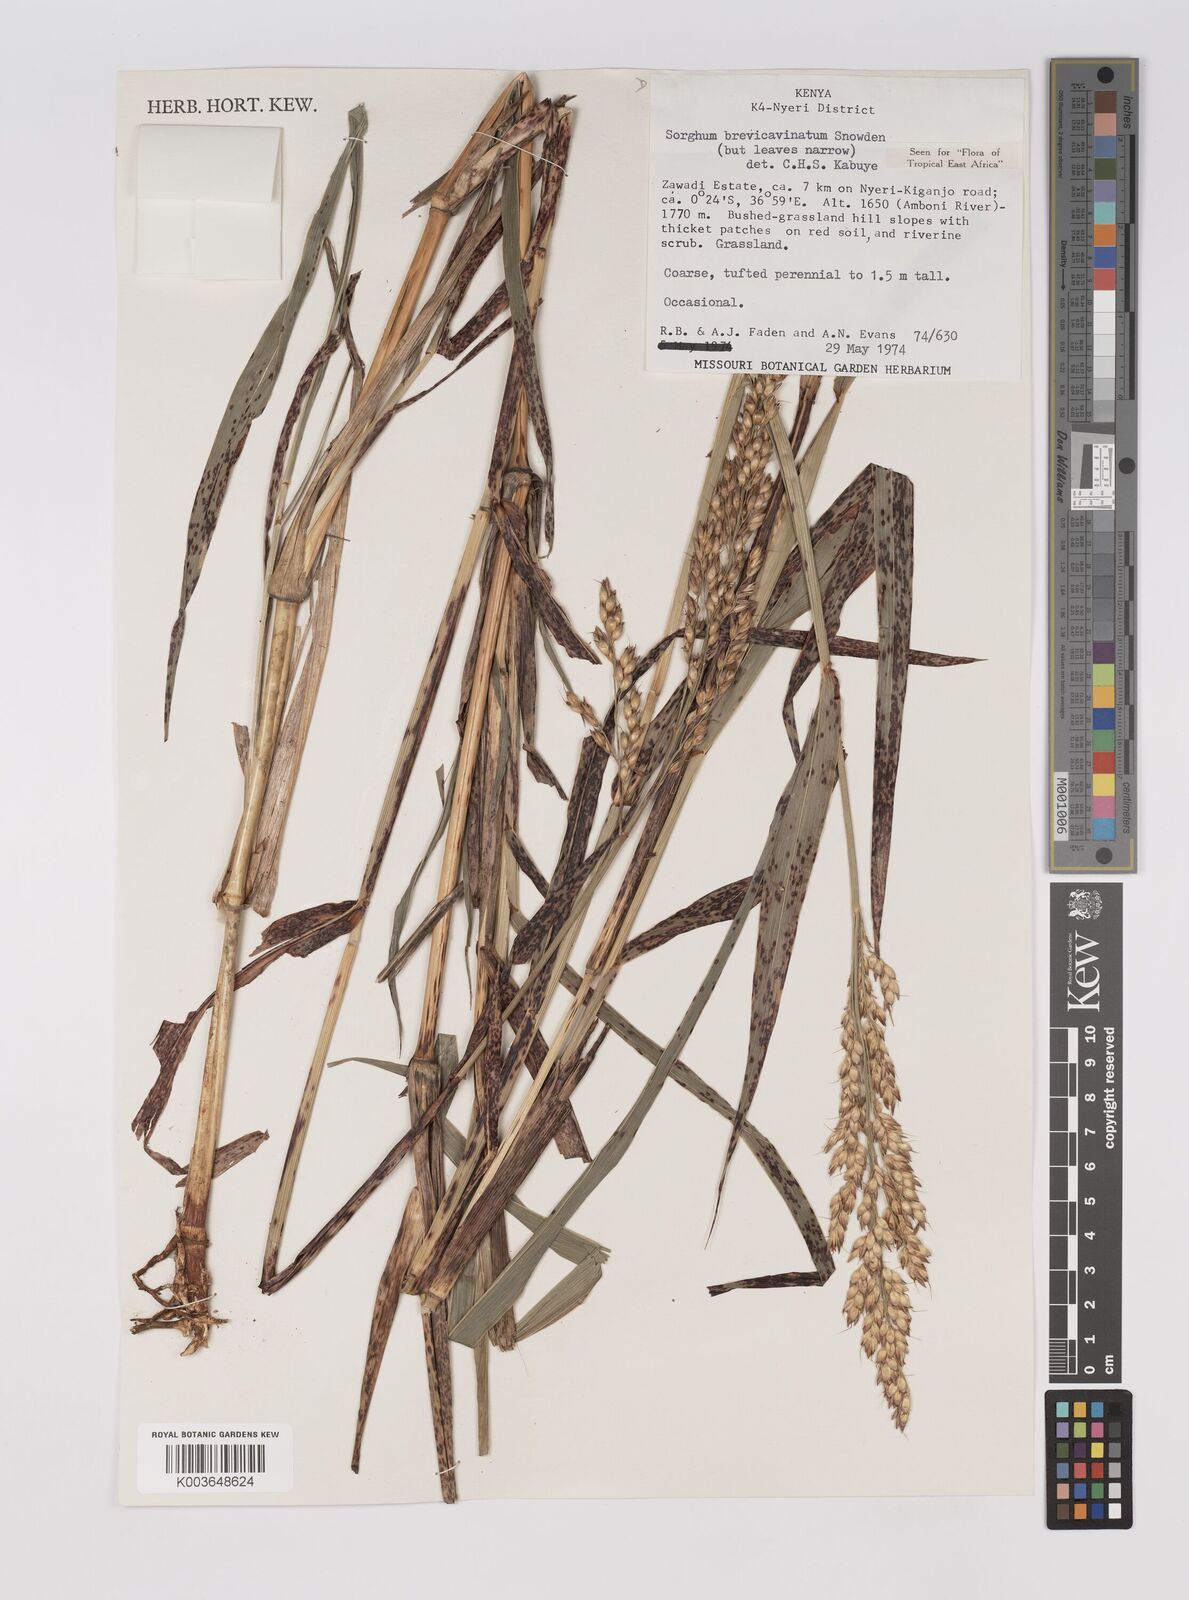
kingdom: Plantae
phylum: Tracheophyta
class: Liliopsida
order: Poales
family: Poaceae
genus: Sorghum
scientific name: Sorghum arundinaceum
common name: Sorghum
